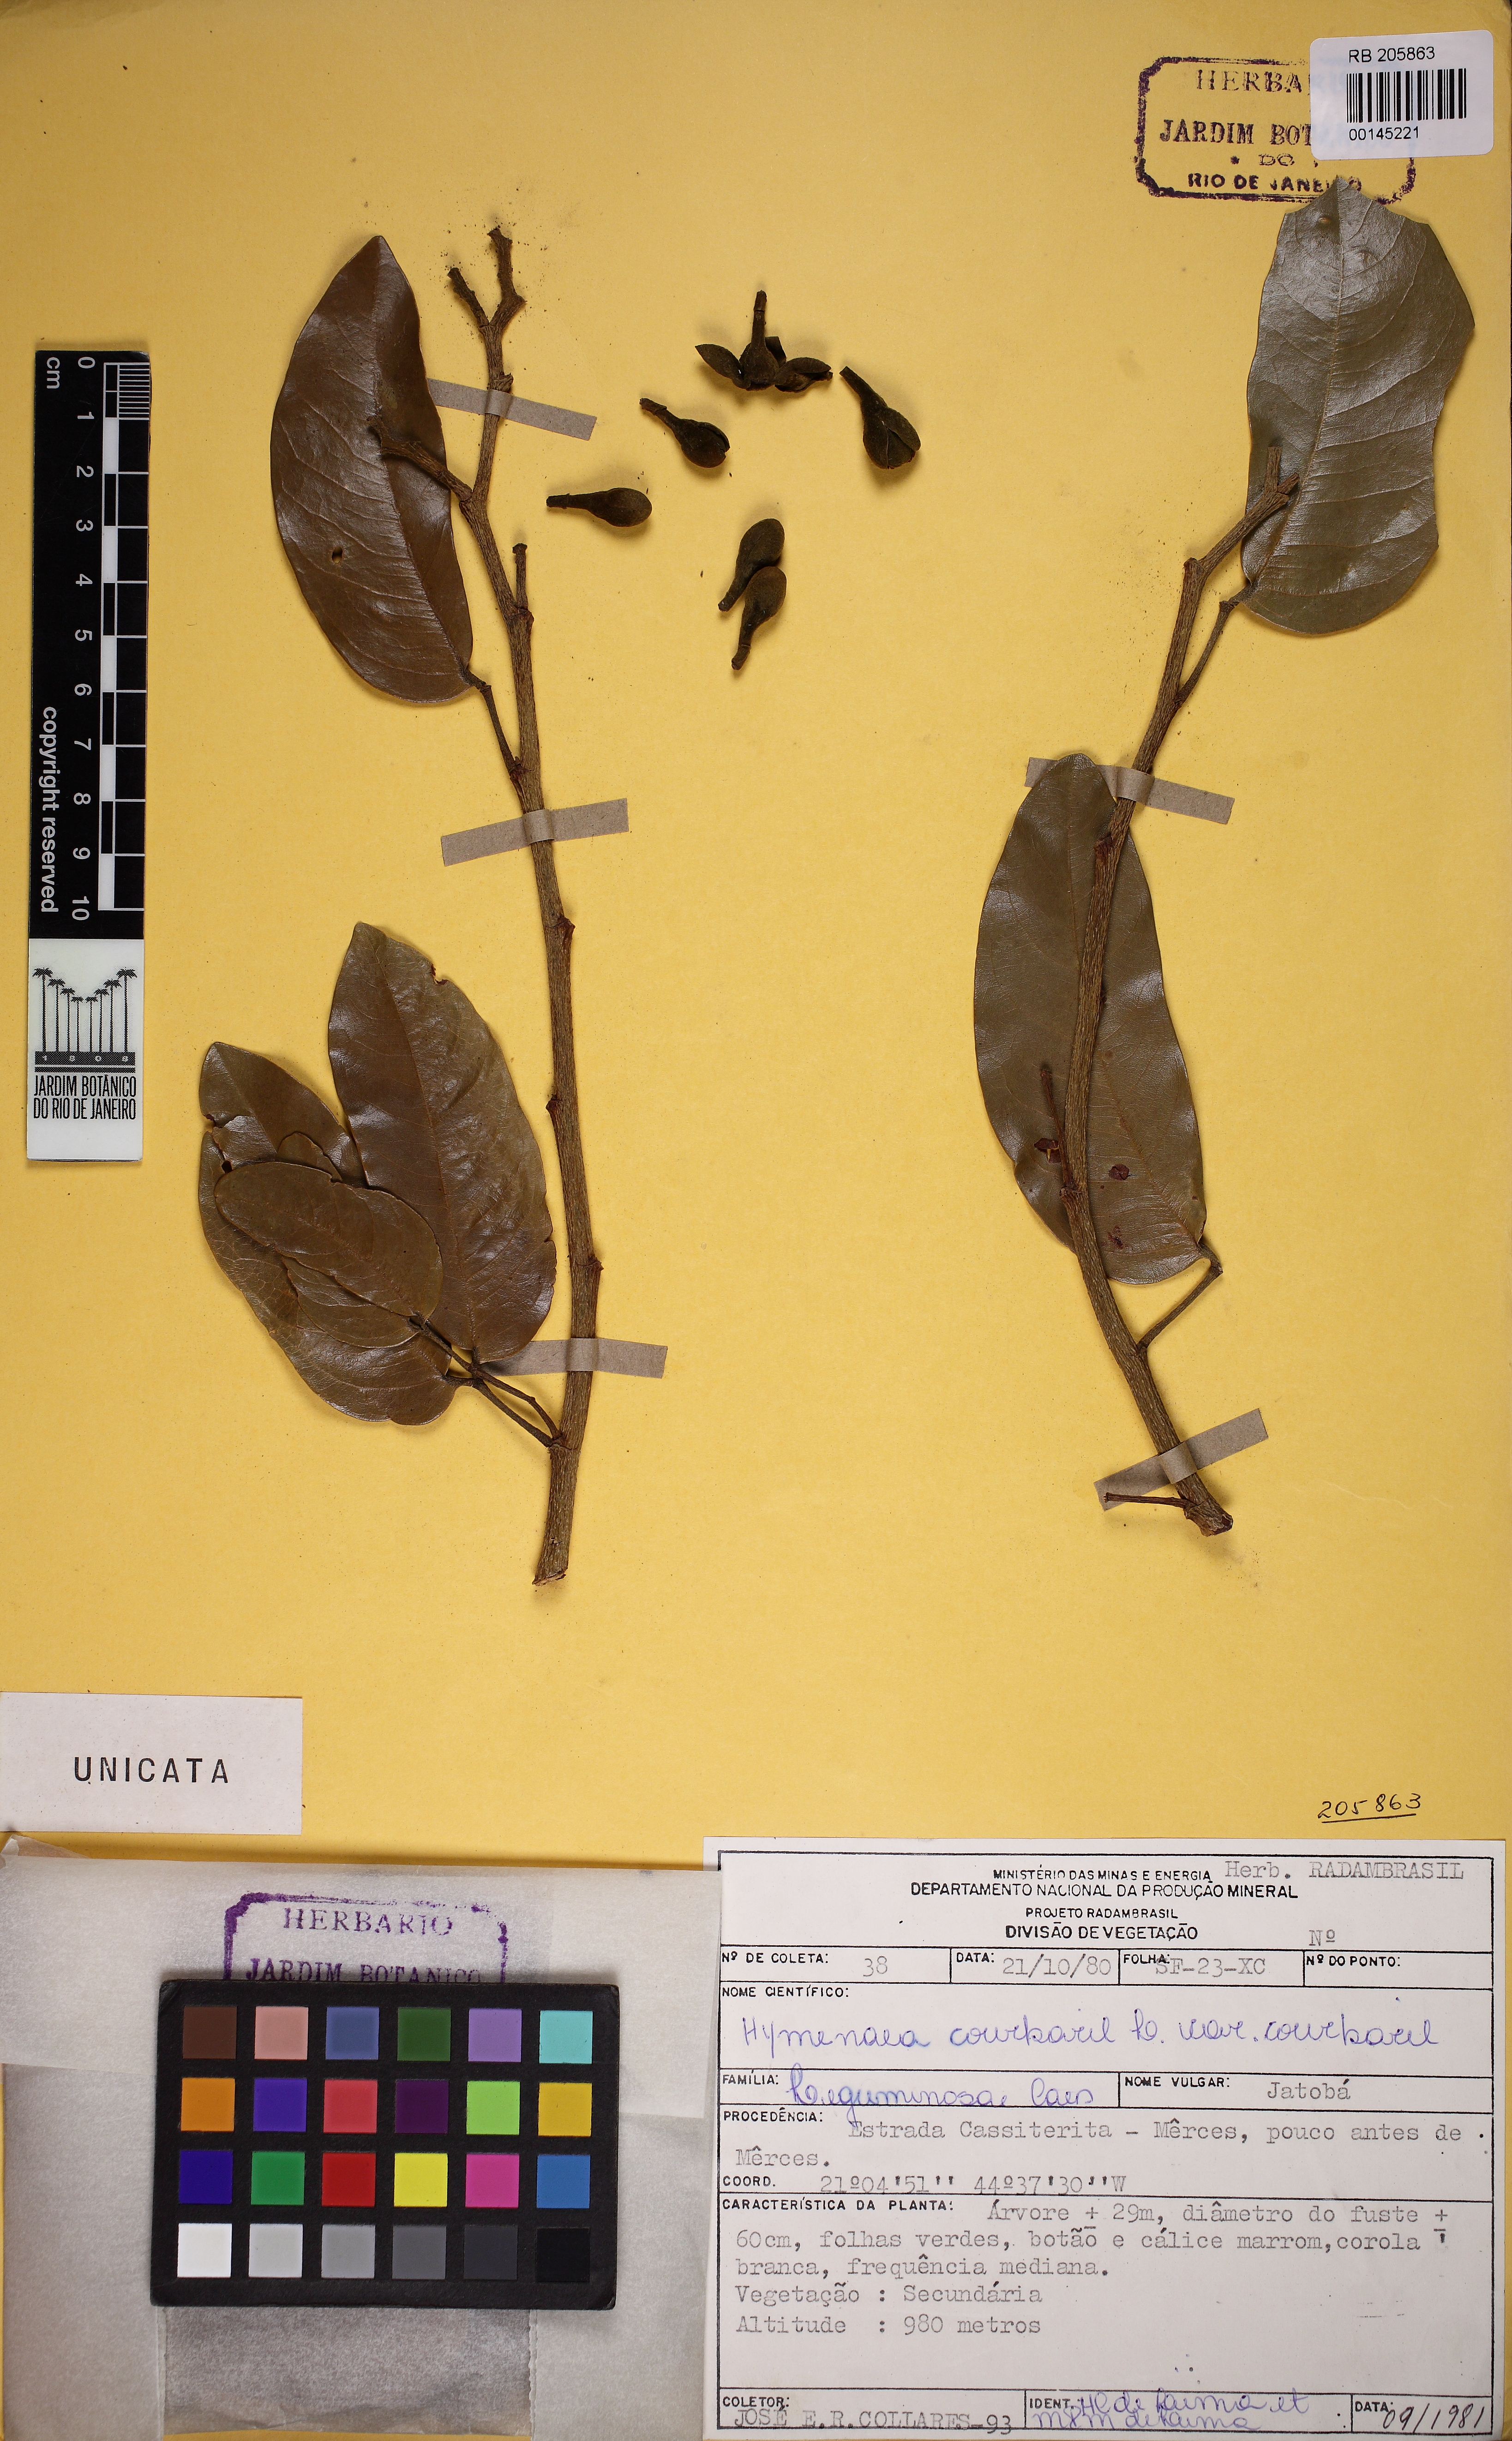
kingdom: Plantae
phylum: Tracheophyta
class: Magnoliopsida
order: Fabales
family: Fabaceae
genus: Hymenaea
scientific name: Hymenaea courbaril
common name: Brazilian copal
